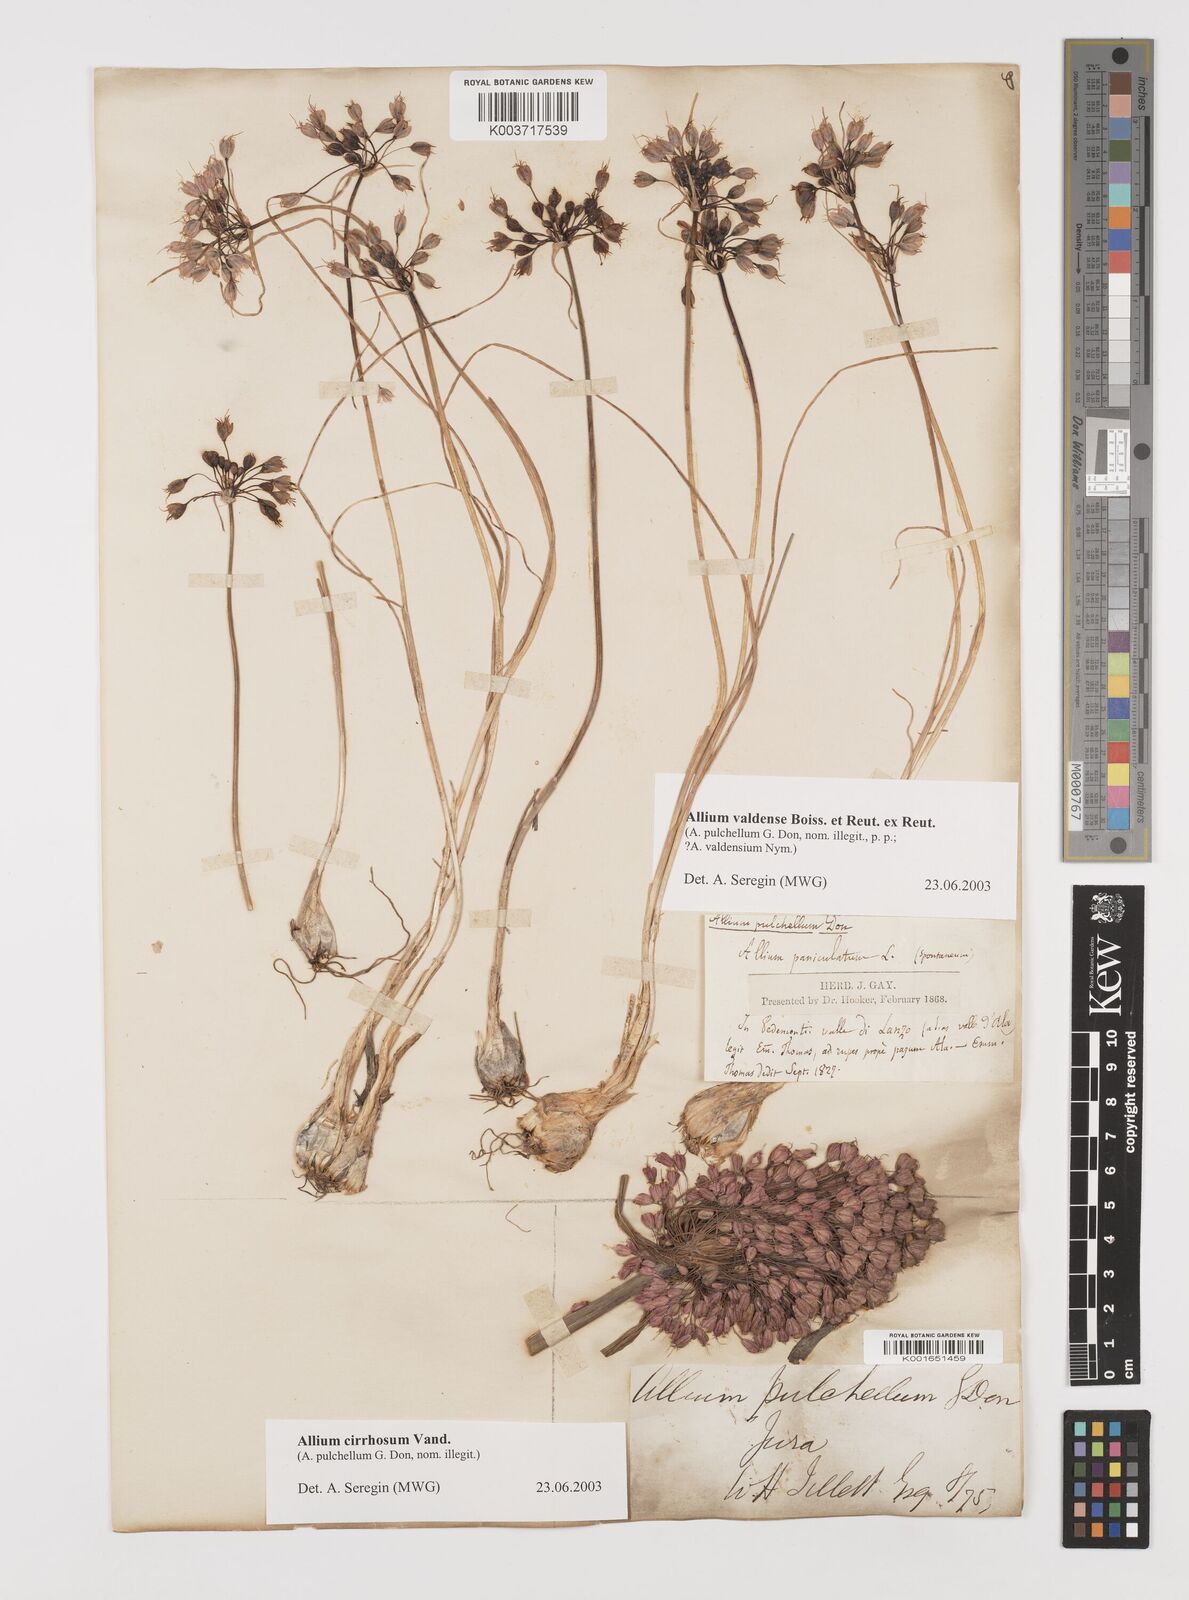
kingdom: Plantae
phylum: Tracheophyta
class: Liliopsida
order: Asparagales
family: Amaryllidaceae
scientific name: Amaryllidaceae
